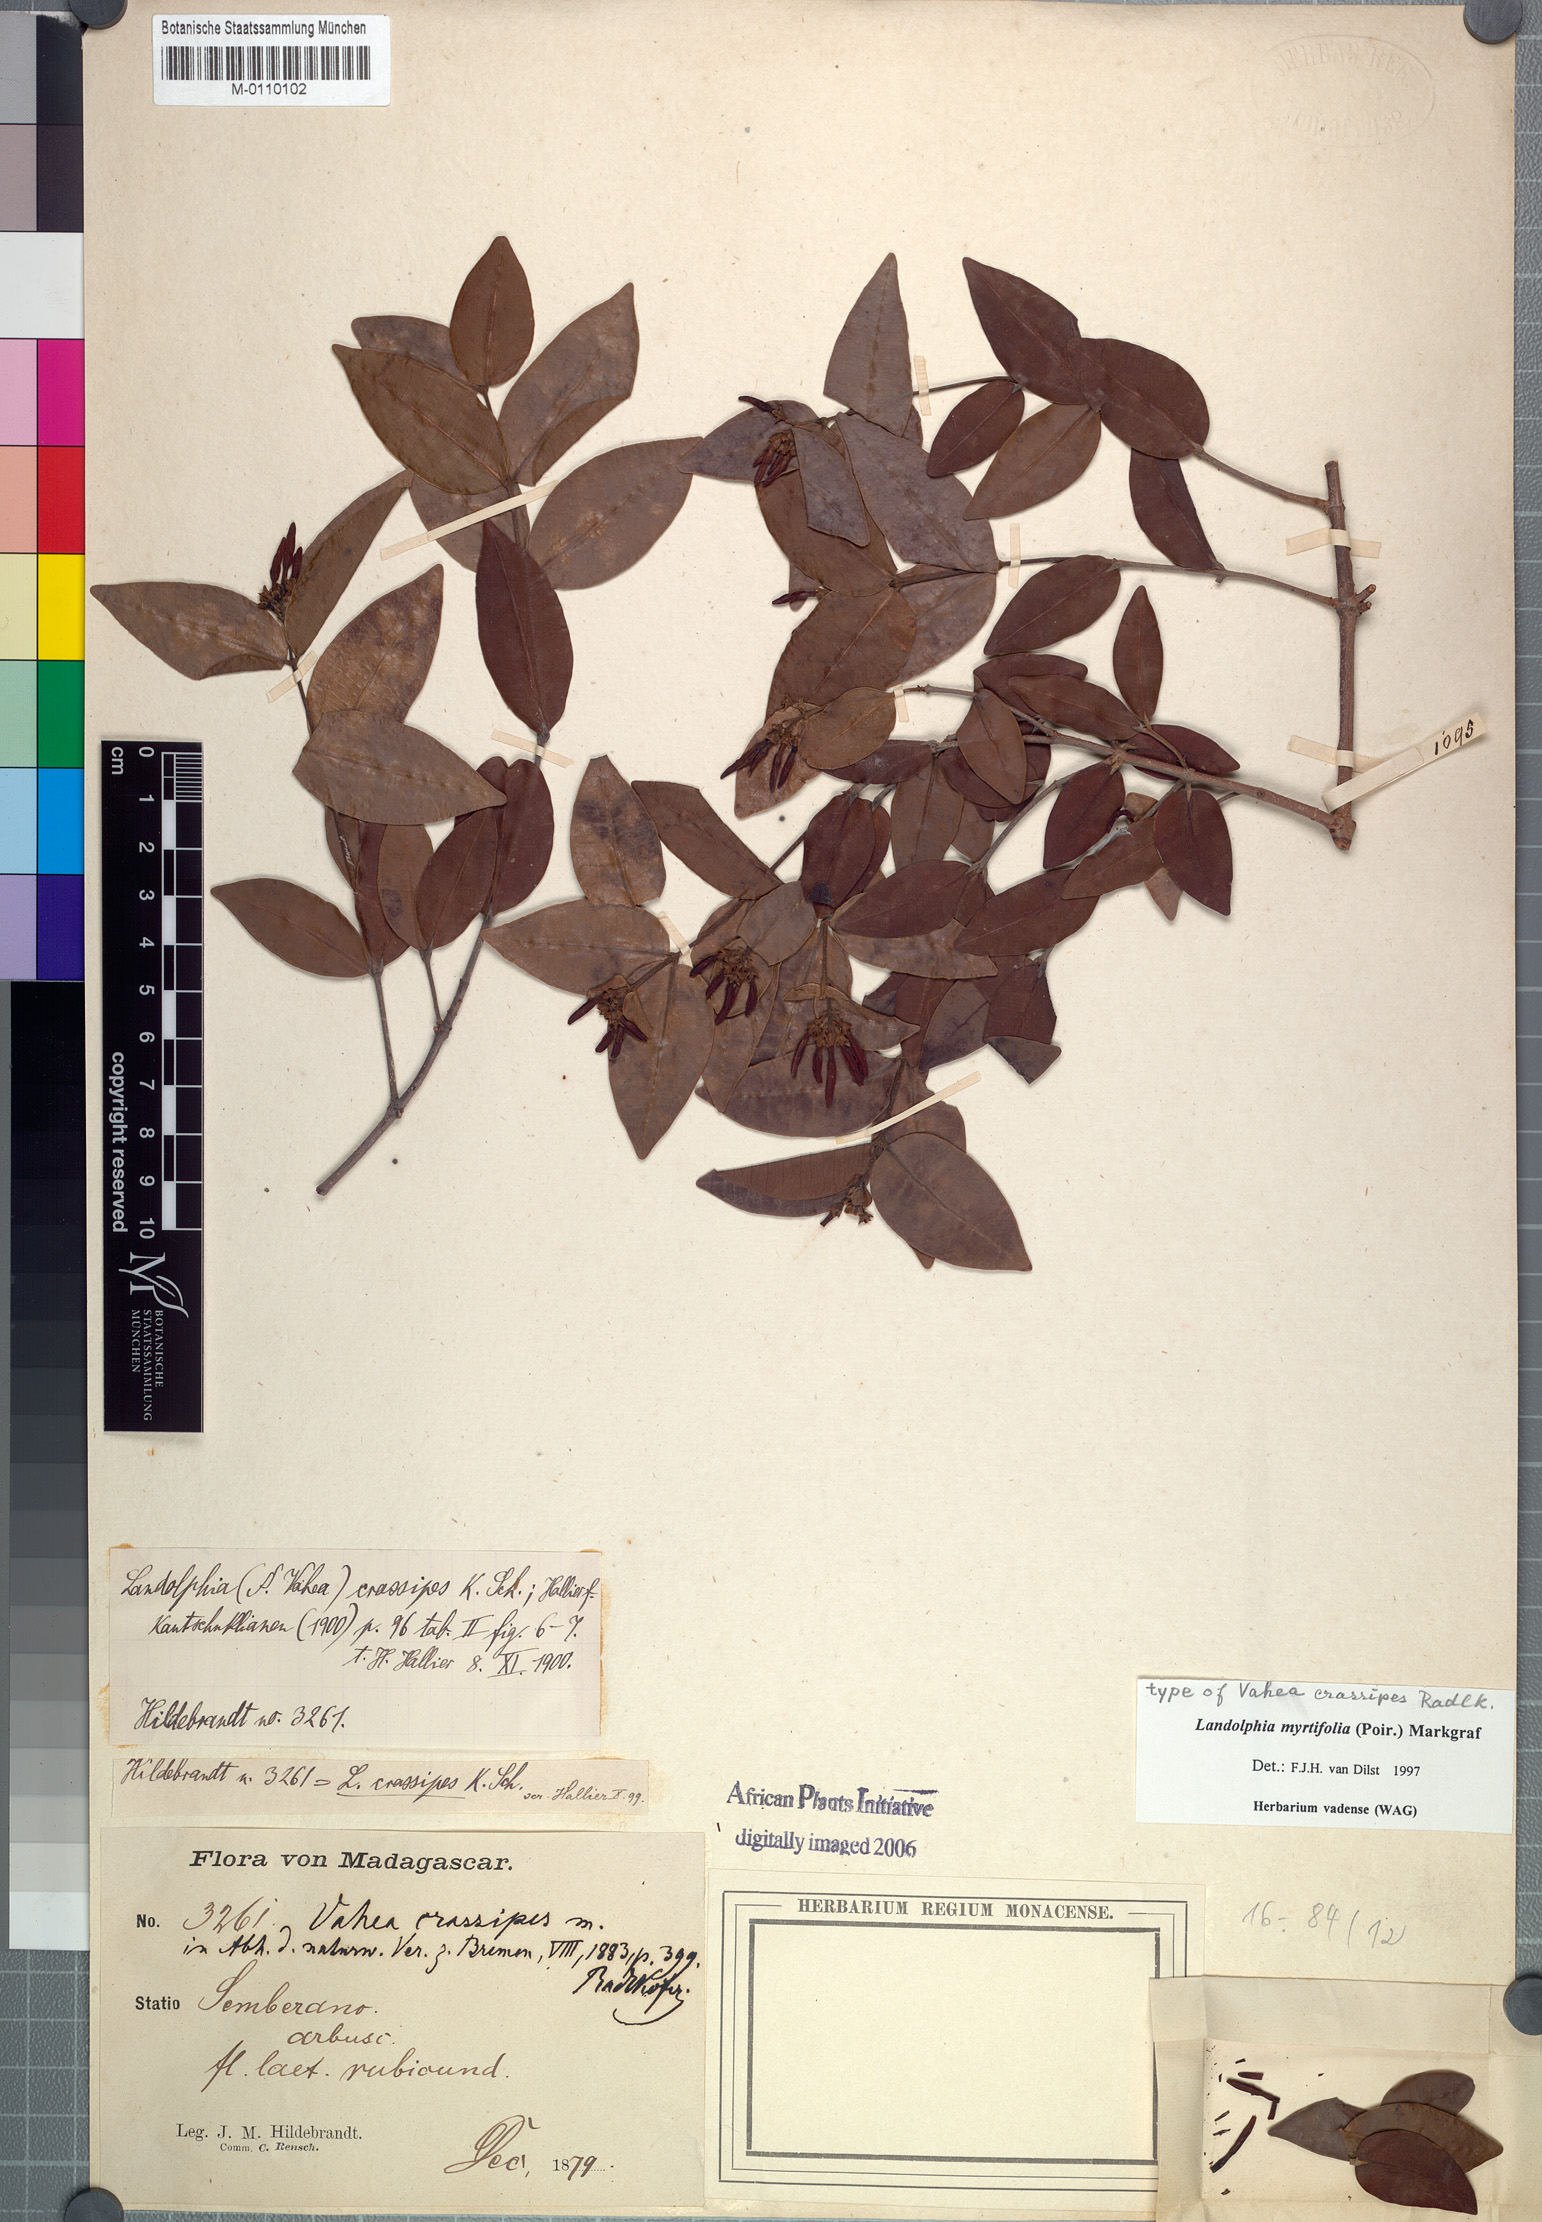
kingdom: Plantae
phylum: Tracheophyta
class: Magnoliopsida
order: Gentianales
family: Apocynaceae
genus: Landolphia
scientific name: Landolphia myrtifolia
